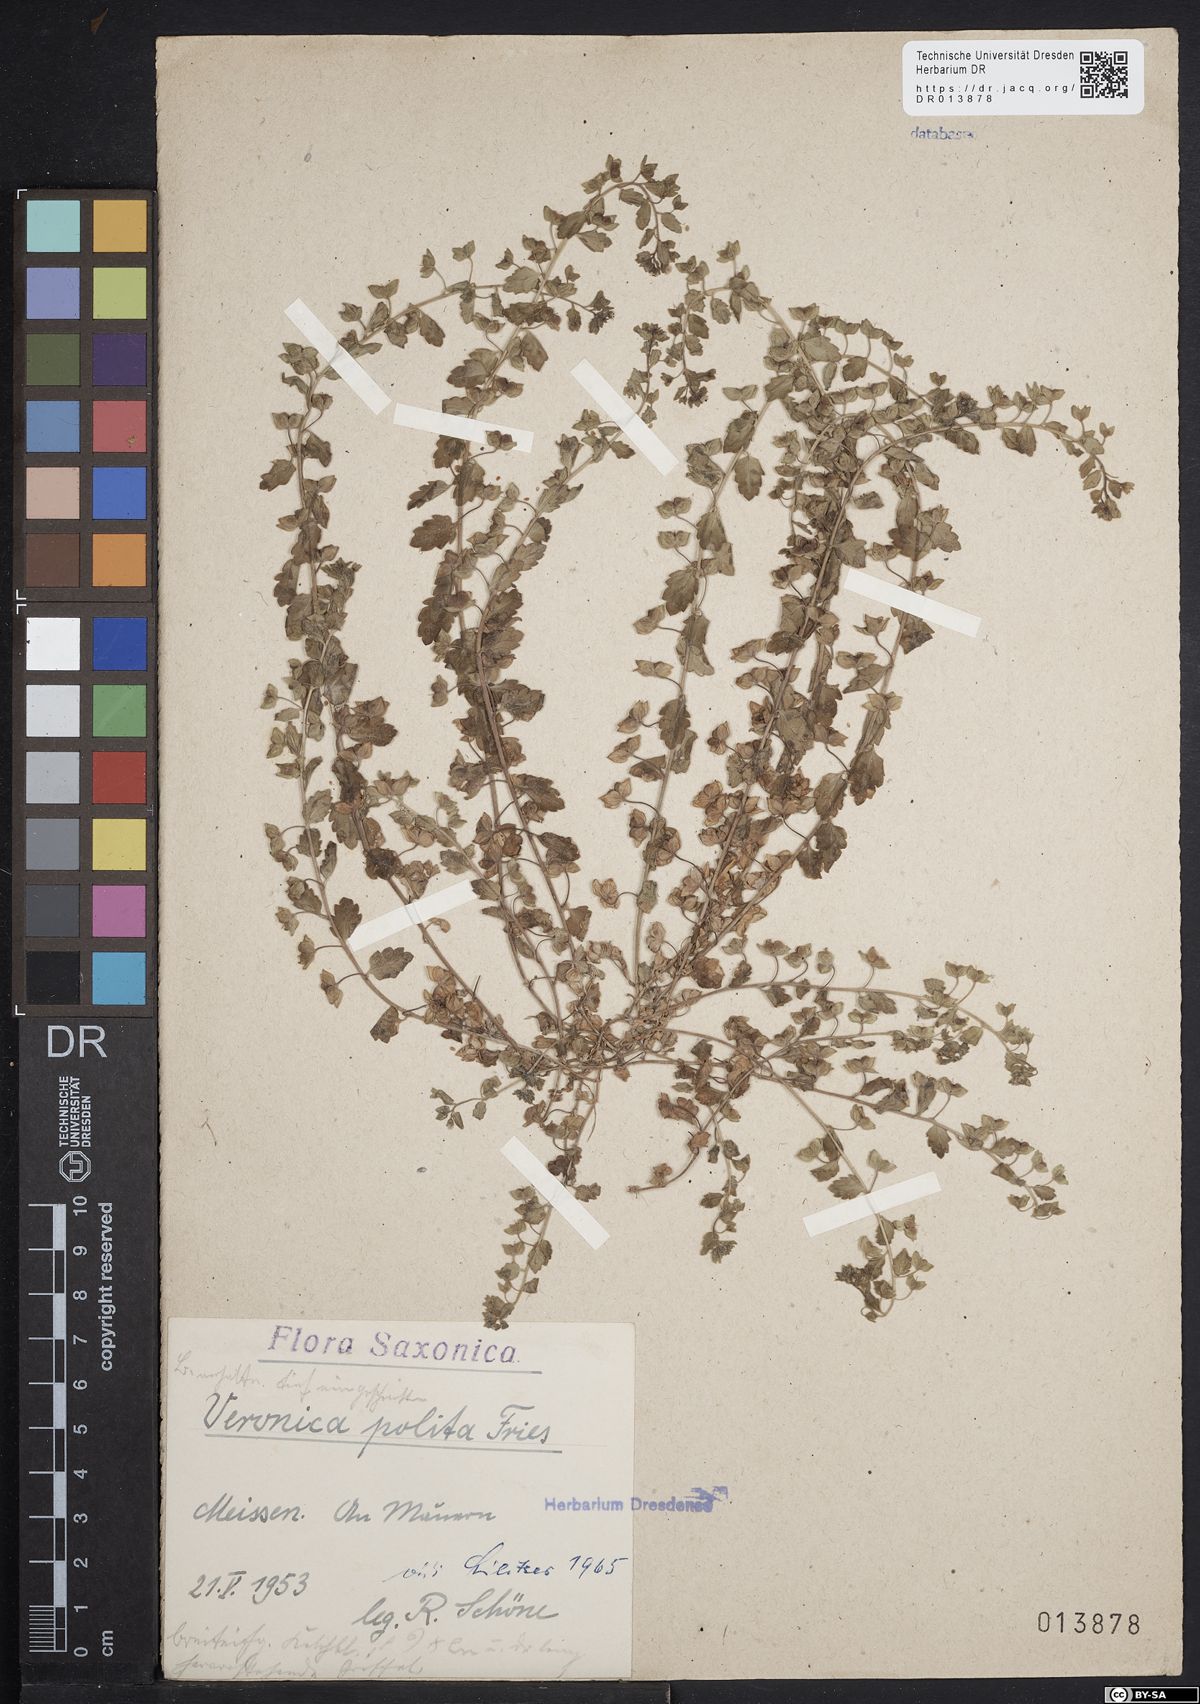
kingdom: Plantae
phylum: Tracheophyta
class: Magnoliopsida
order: Lamiales
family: Plantaginaceae
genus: Veronica
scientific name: Veronica polita
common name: Grey field-speedwell
